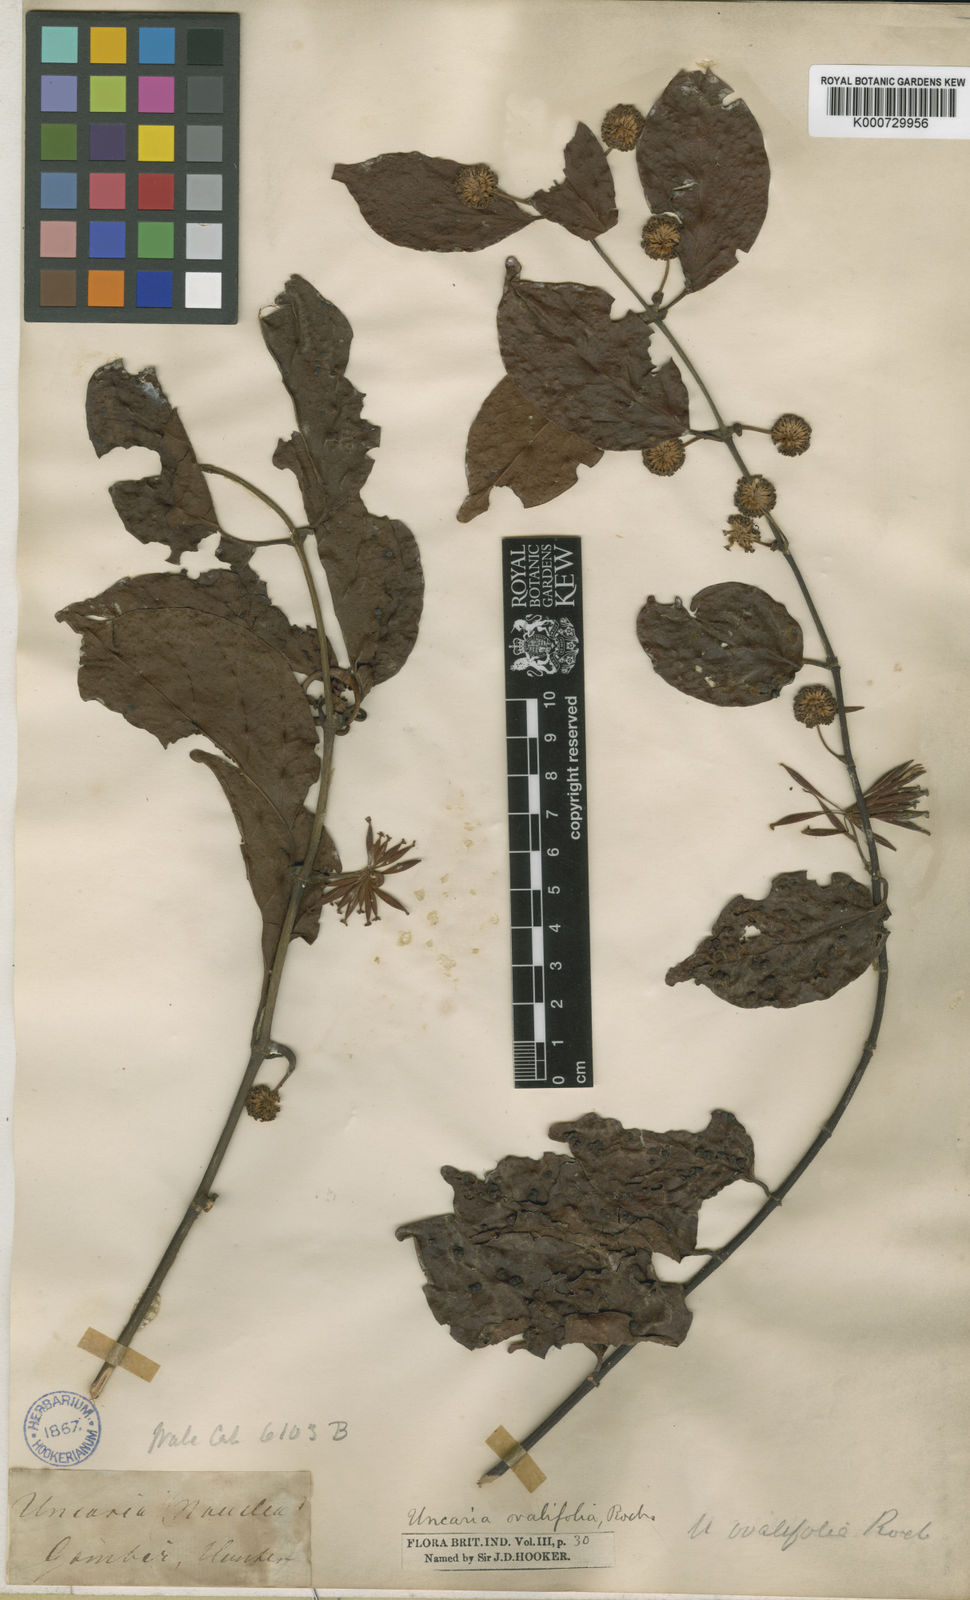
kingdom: Plantae
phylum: Tracheophyta
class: Magnoliopsida
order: Gentianales
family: Rubiaceae
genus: Uncaria
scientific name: Uncaria acida
